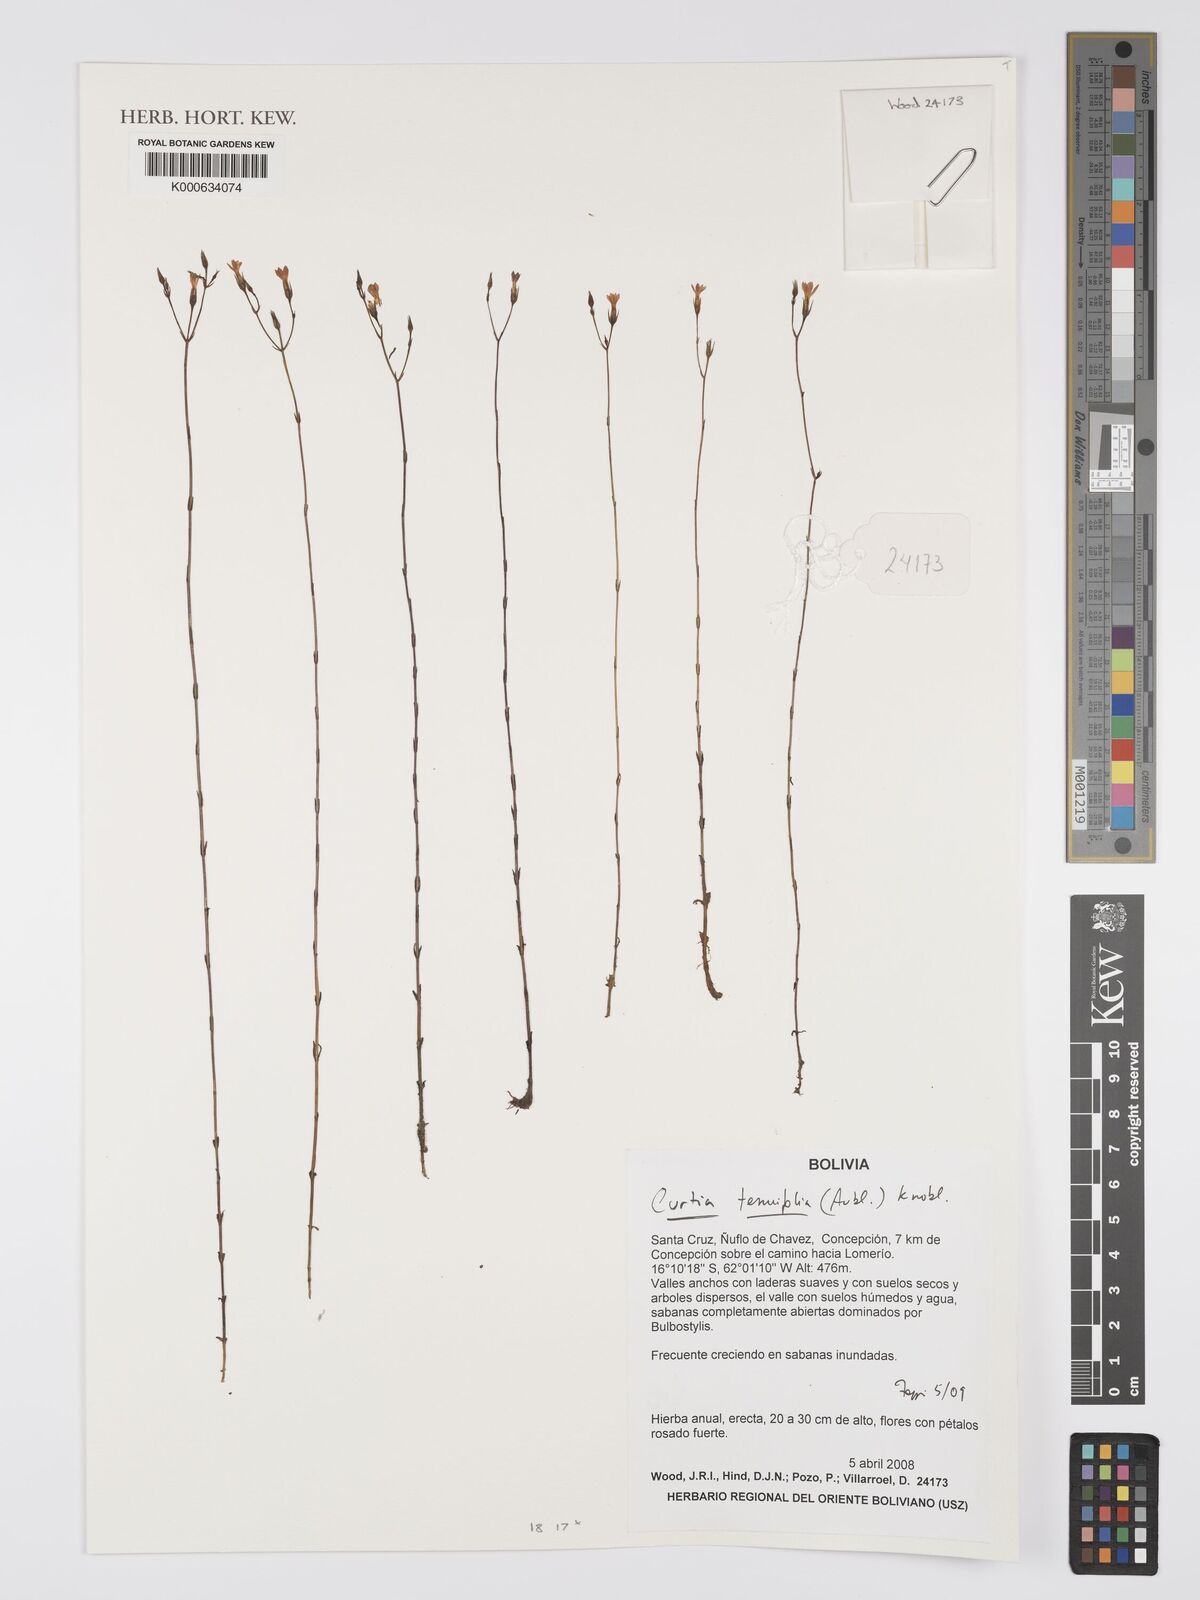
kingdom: Plantae
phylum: Tracheophyta
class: Magnoliopsida
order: Gentianales
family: Gentianaceae
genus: Curtia
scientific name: Curtia tenuifolia
